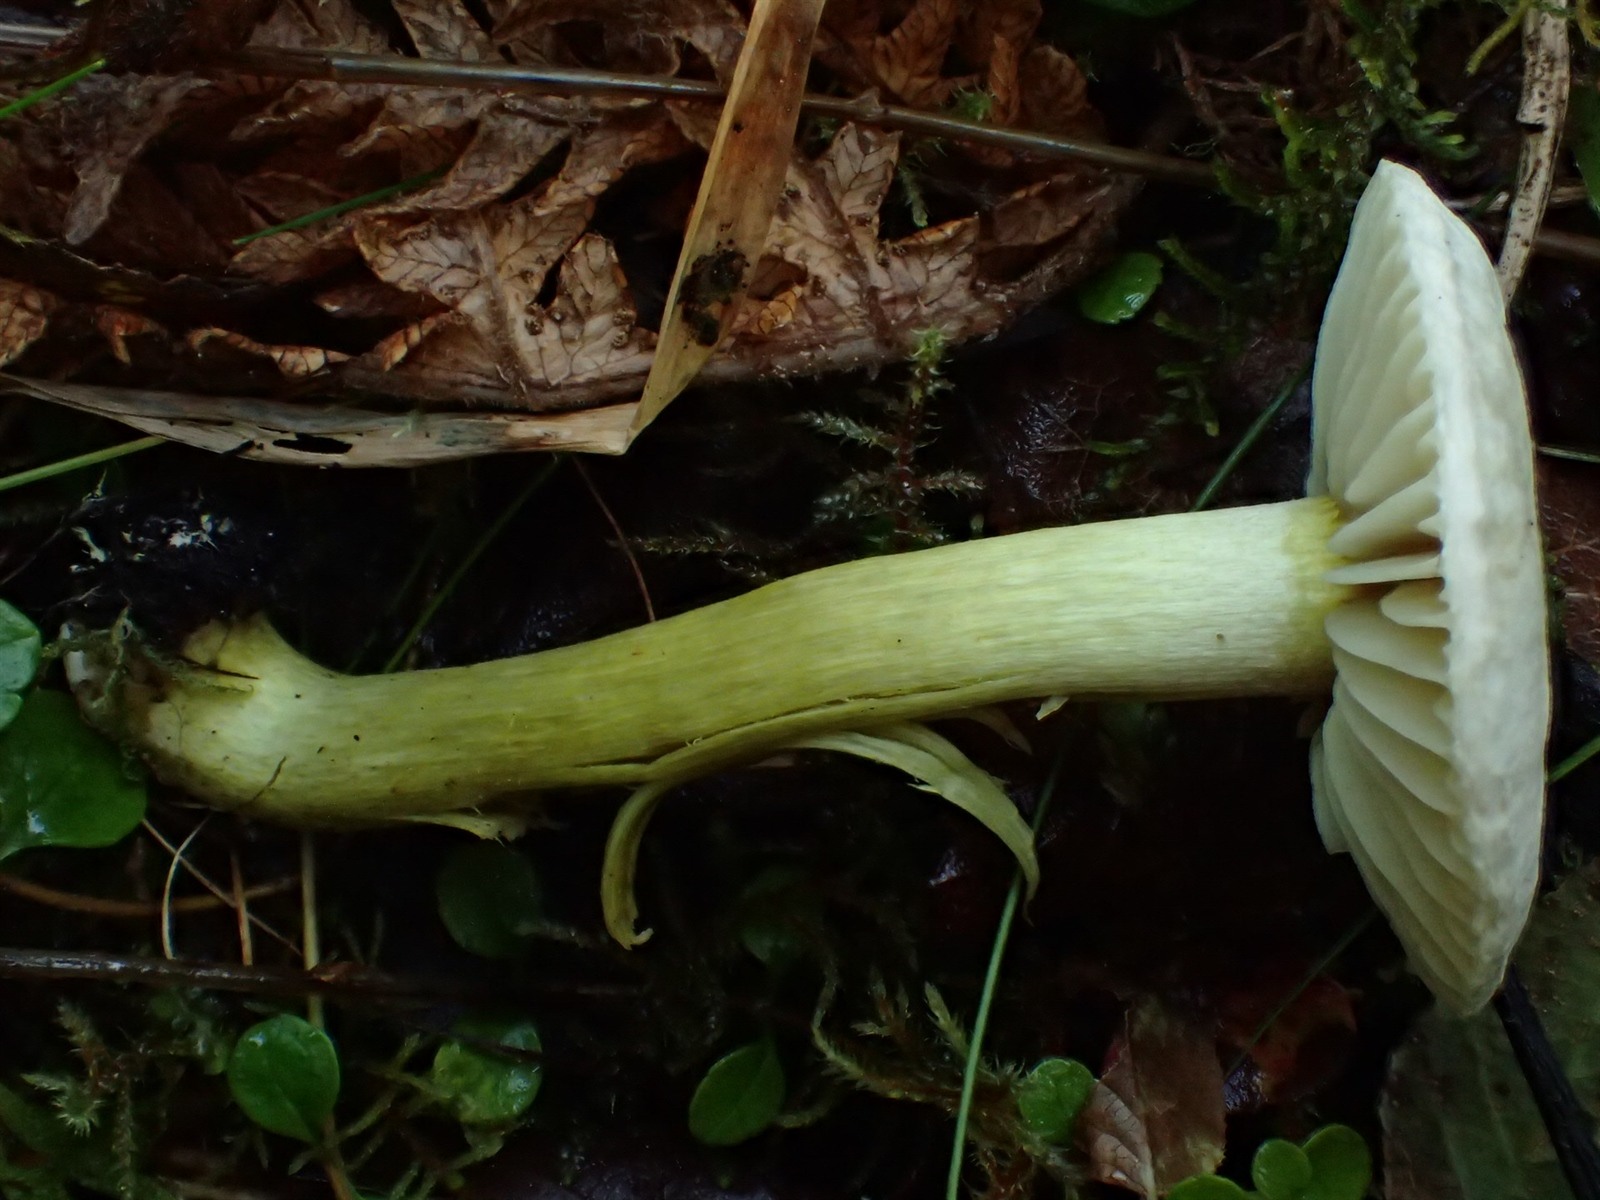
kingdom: Fungi
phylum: Basidiomycota
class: Agaricomycetes
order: Agaricales
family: Tricholomataceae
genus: Tricholoma
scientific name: Tricholoma bryogenum
